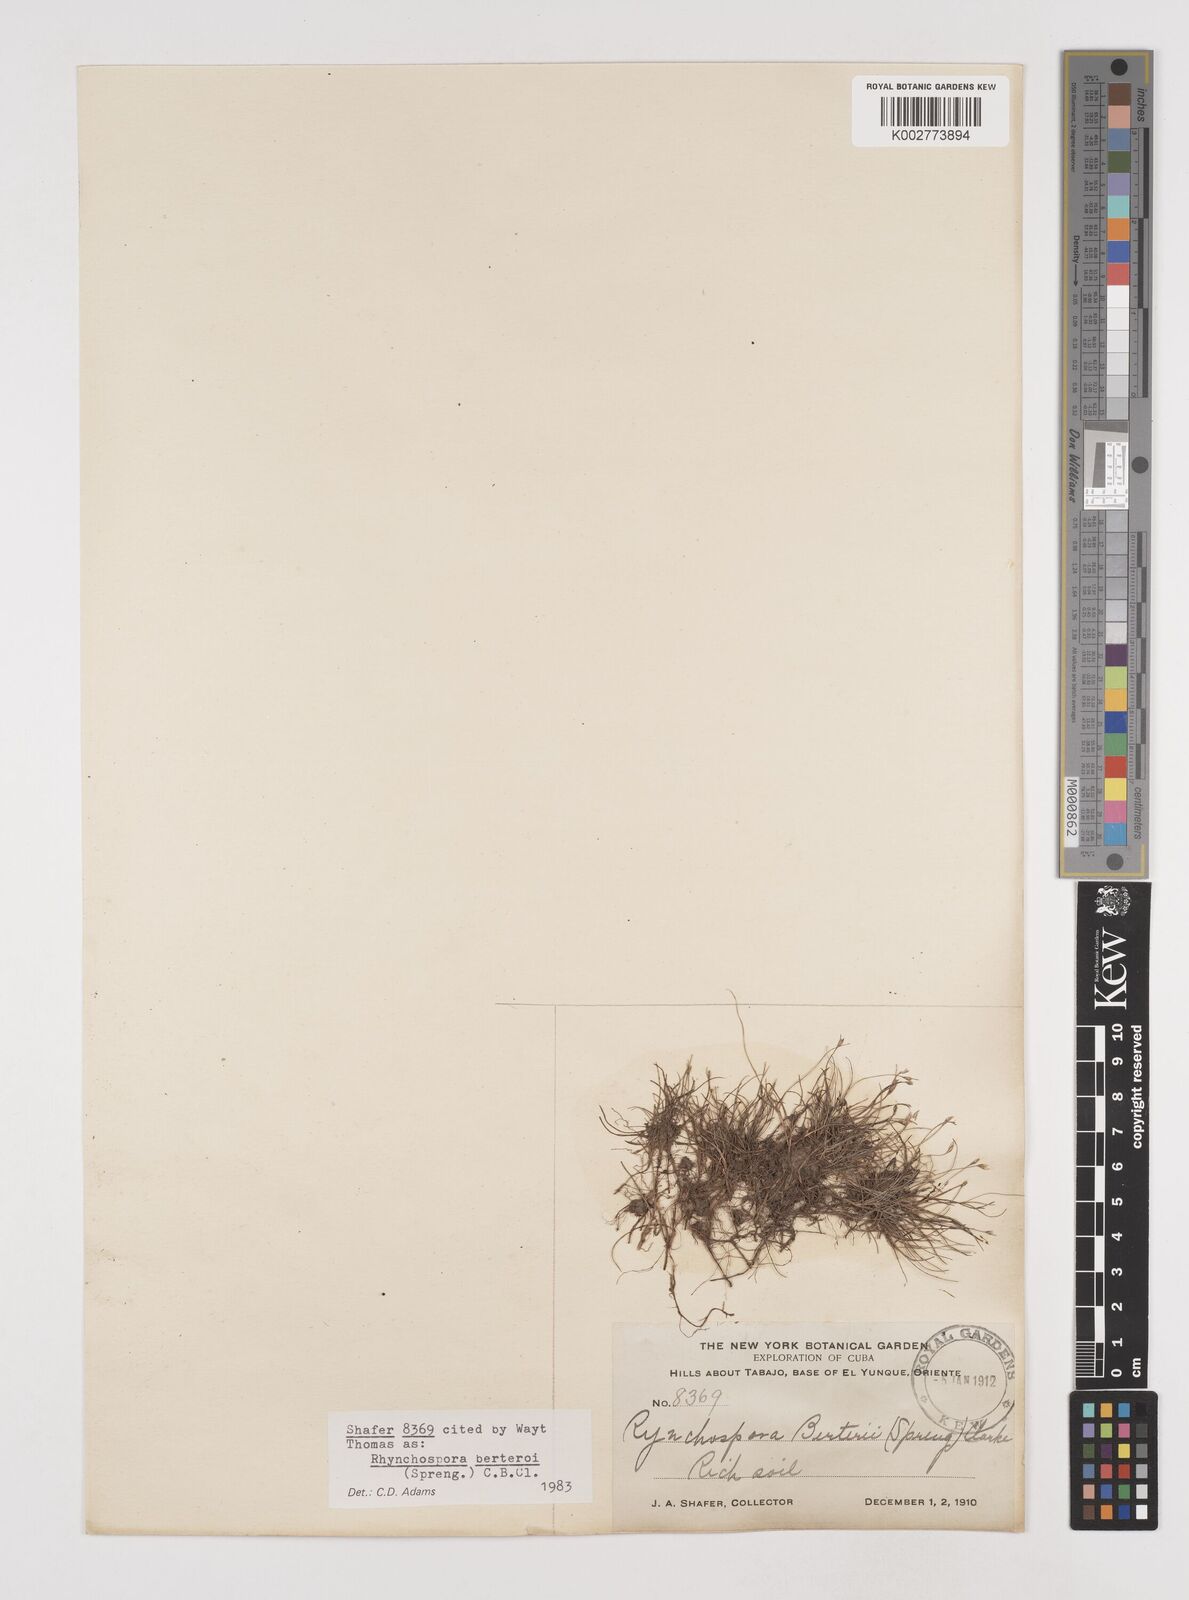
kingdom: Plantae
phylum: Tracheophyta
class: Liliopsida
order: Poales
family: Cyperaceae
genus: Rhynchospora
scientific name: Rhynchospora berteroi
